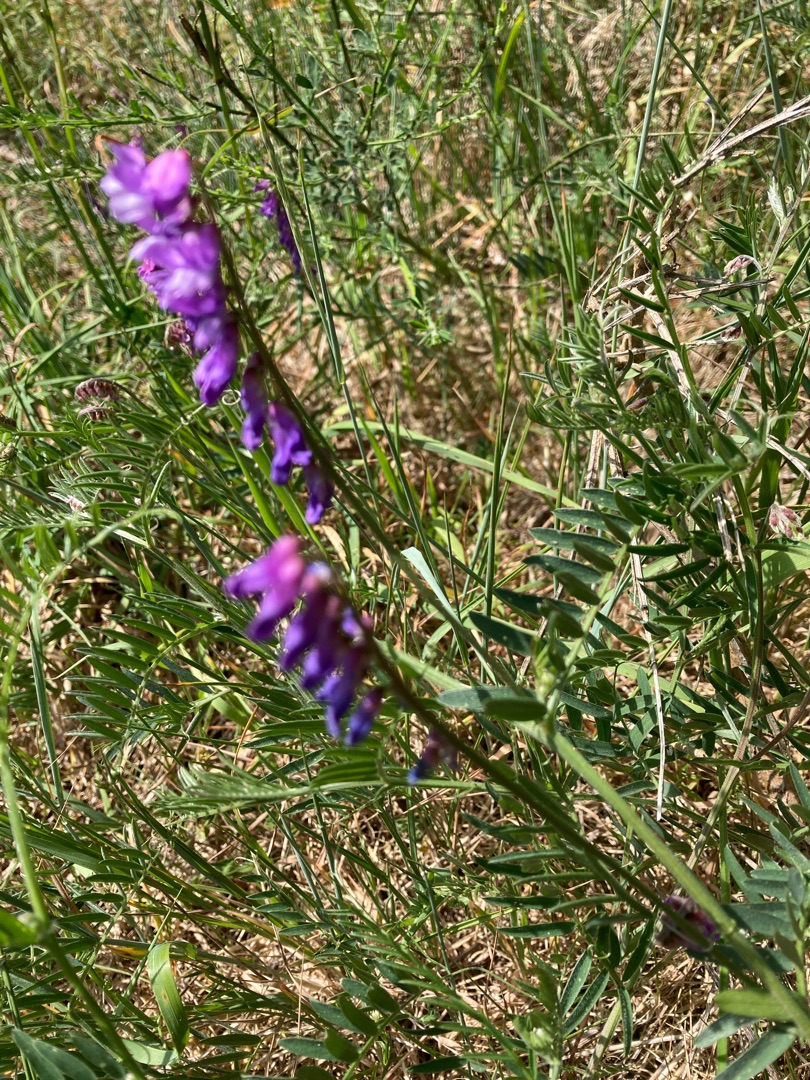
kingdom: Plantae
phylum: Tracheophyta
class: Magnoliopsida
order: Fabales
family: Fabaceae
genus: Vicia
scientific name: Vicia cracca
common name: Muse-vikke
